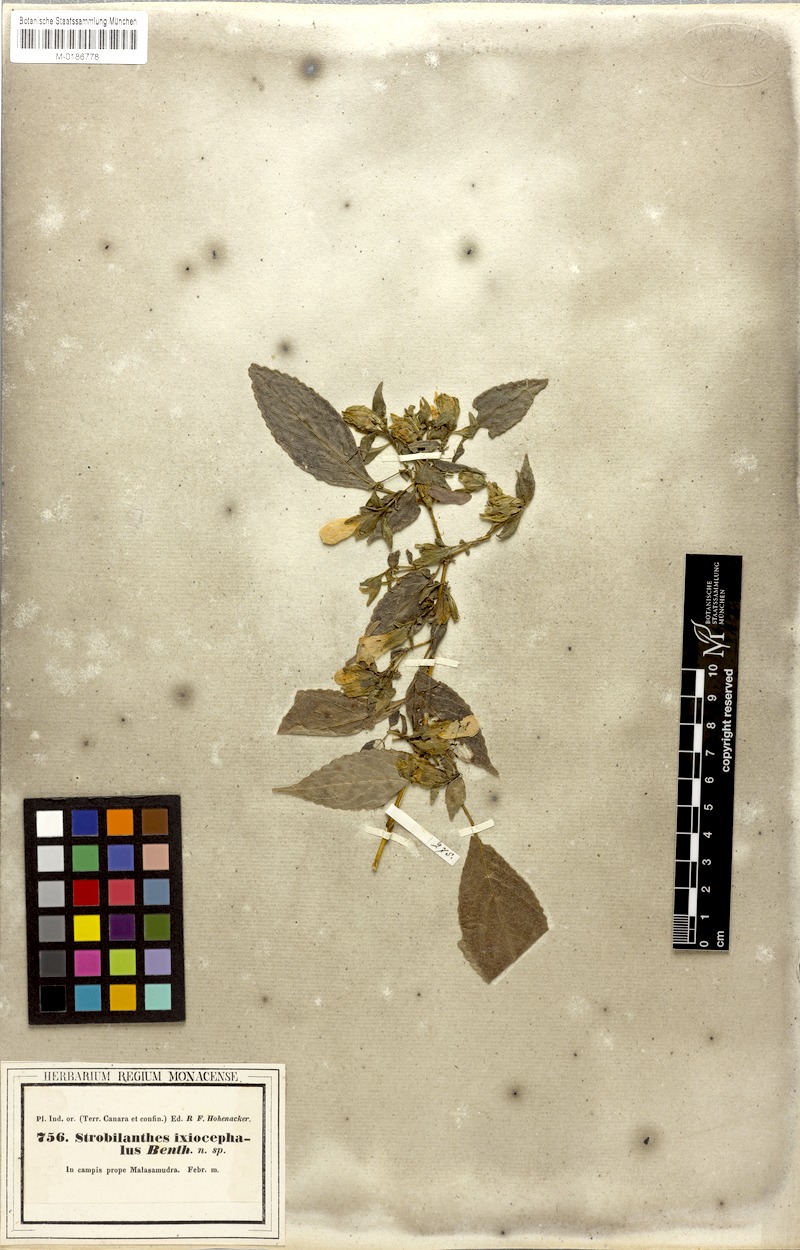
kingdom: Plantae
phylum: Tracheophyta
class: Magnoliopsida
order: Lamiales
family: Acanthaceae
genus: Strobilanthes
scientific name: Strobilanthes ixiocephala
